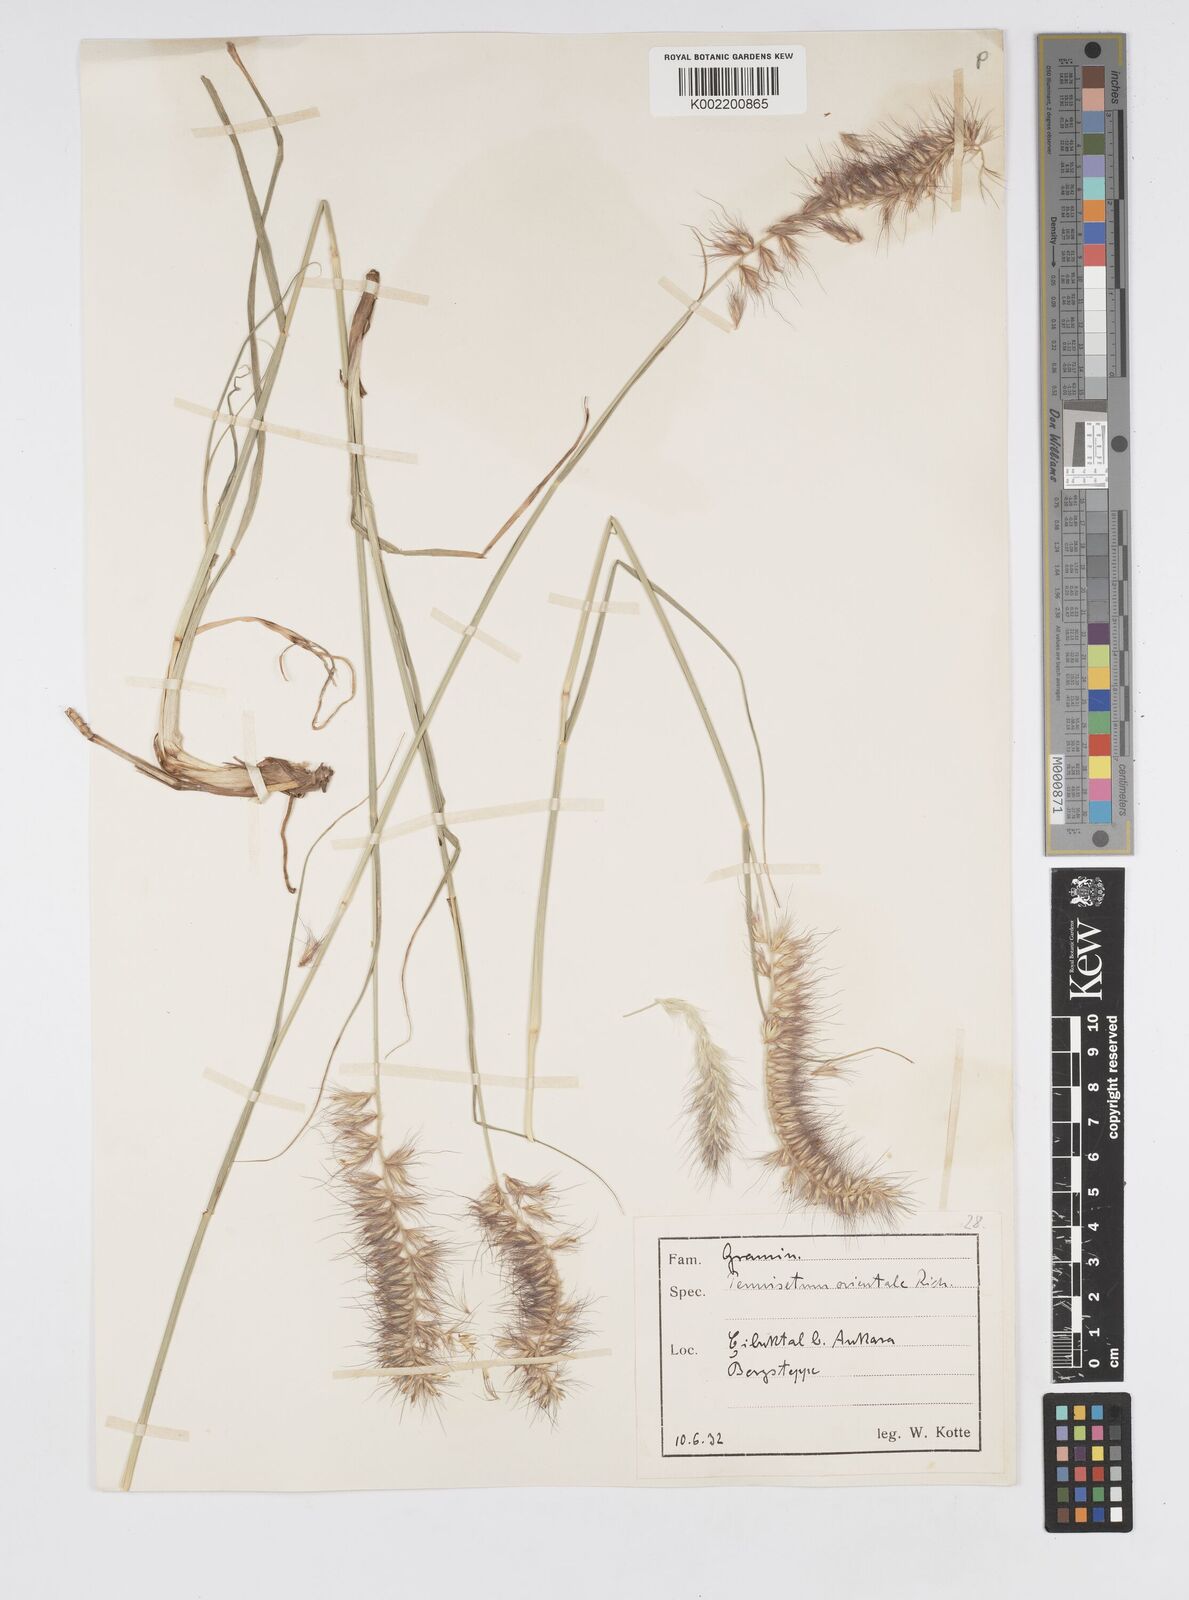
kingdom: Plantae
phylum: Tracheophyta
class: Liliopsida
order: Poales
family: Poaceae
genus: Cenchrus
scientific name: Cenchrus orientalis
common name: Oriental fountain grass
